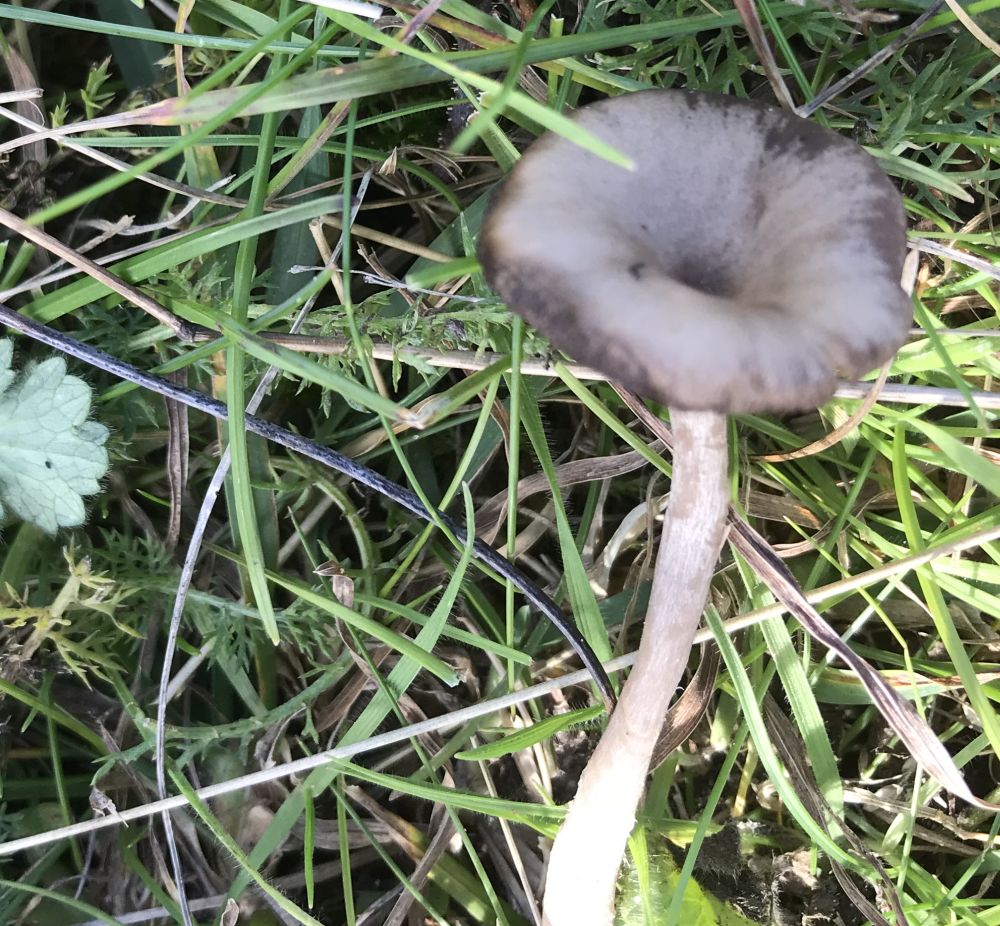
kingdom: Fungi
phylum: Basidiomycota
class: Agaricomycetes
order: Agaricales
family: Pseudoclitocybaceae
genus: Pseudoclitocybe
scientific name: Pseudoclitocybe expallens
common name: lille bægertragthat
